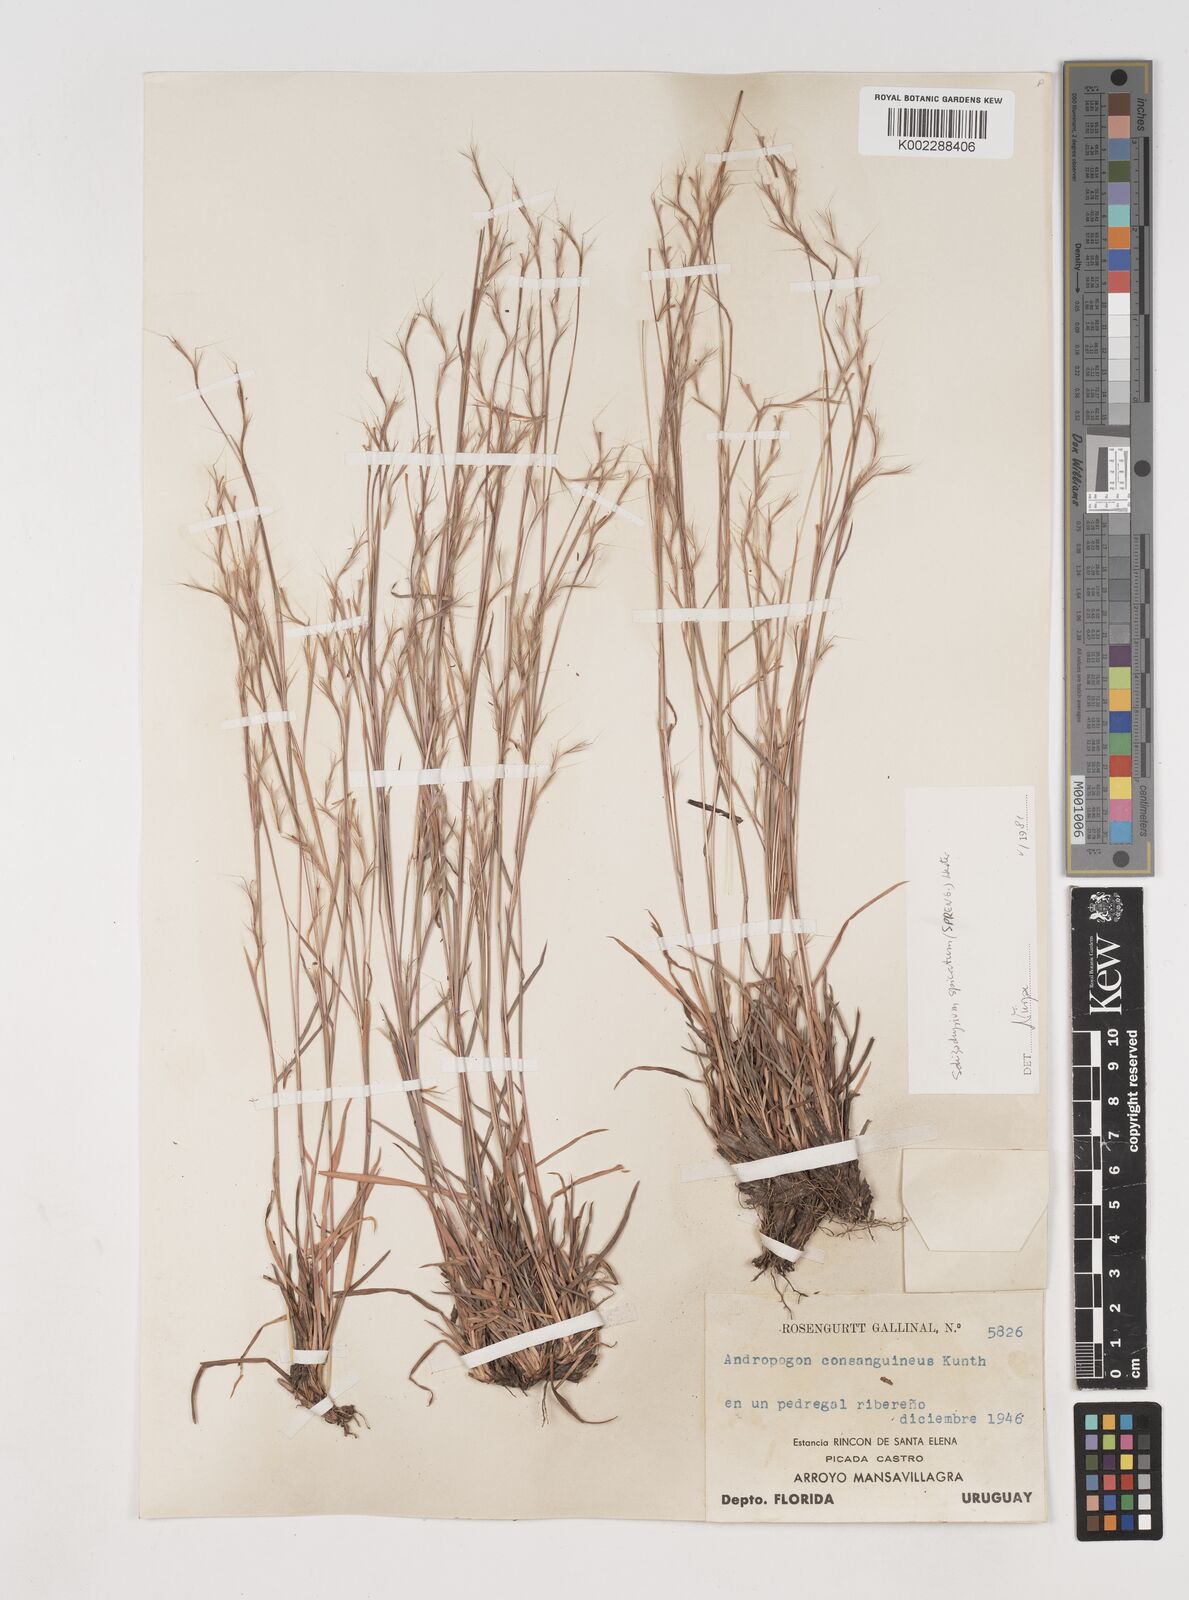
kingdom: Plantae
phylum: Tracheophyta
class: Liliopsida
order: Poales
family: Poaceae
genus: Schizachyrium
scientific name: Schizachyrium spicatum
